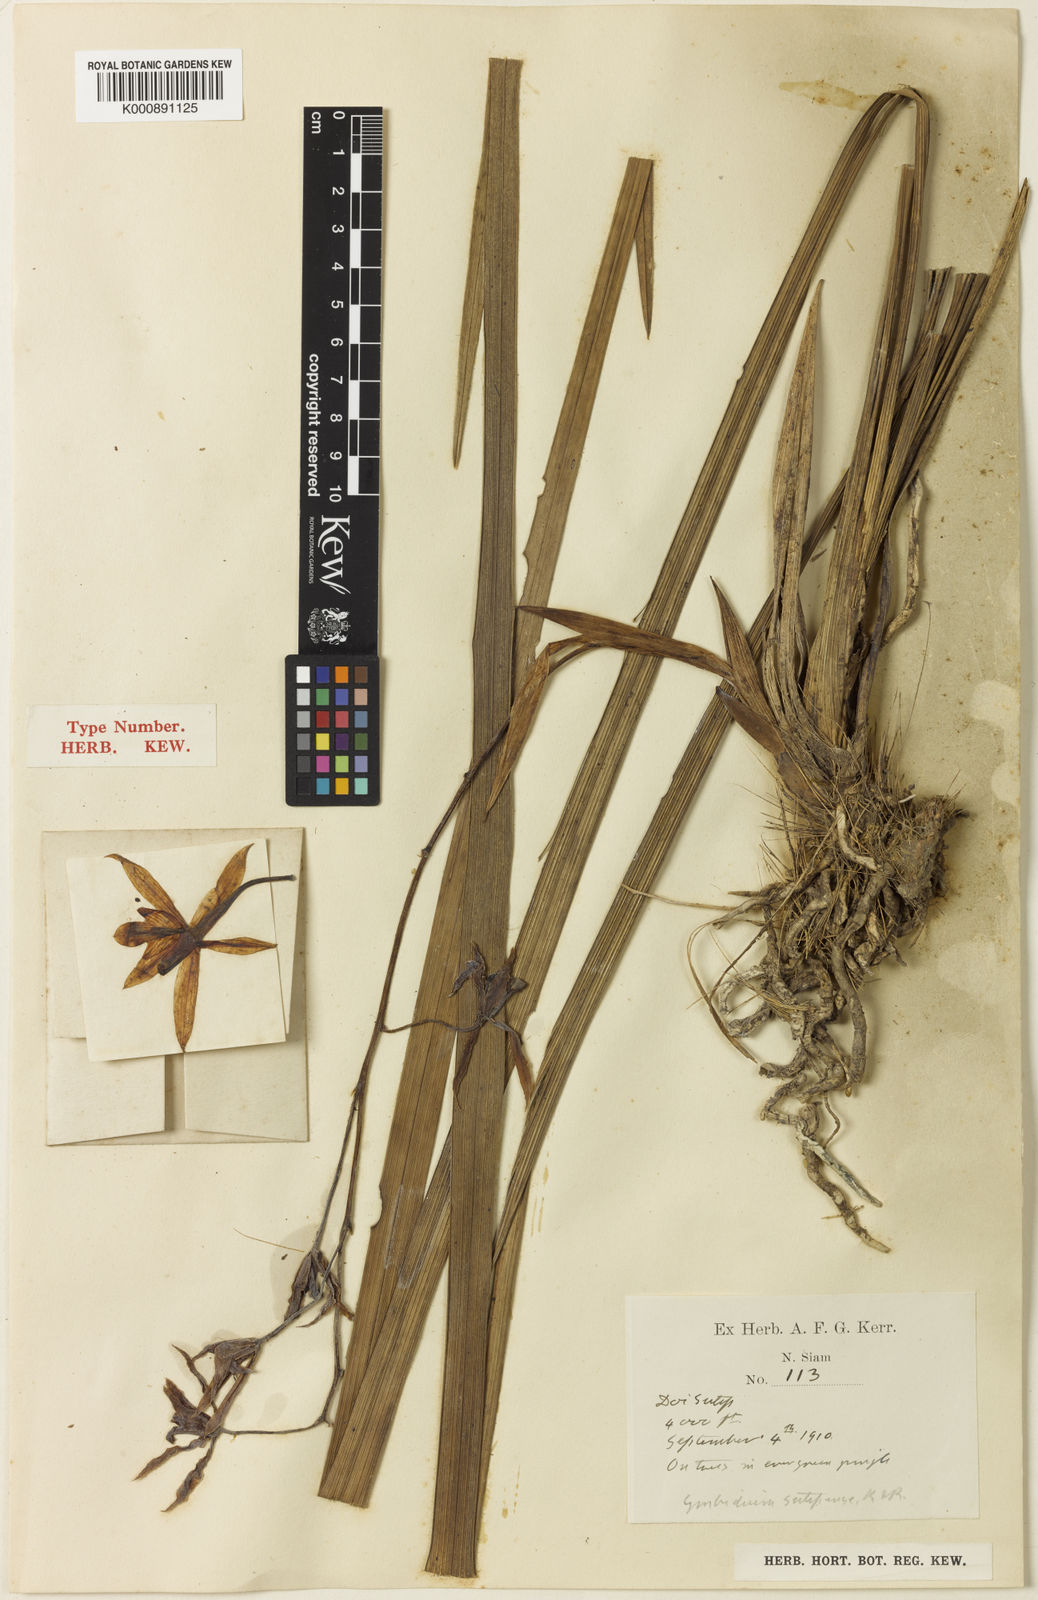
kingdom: Plantae
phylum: Tracheophyta
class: Liliopsida
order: Asparagales
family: Orchidaceae
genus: Cymbidium
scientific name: Cymbidium dayanum
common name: Orchid
